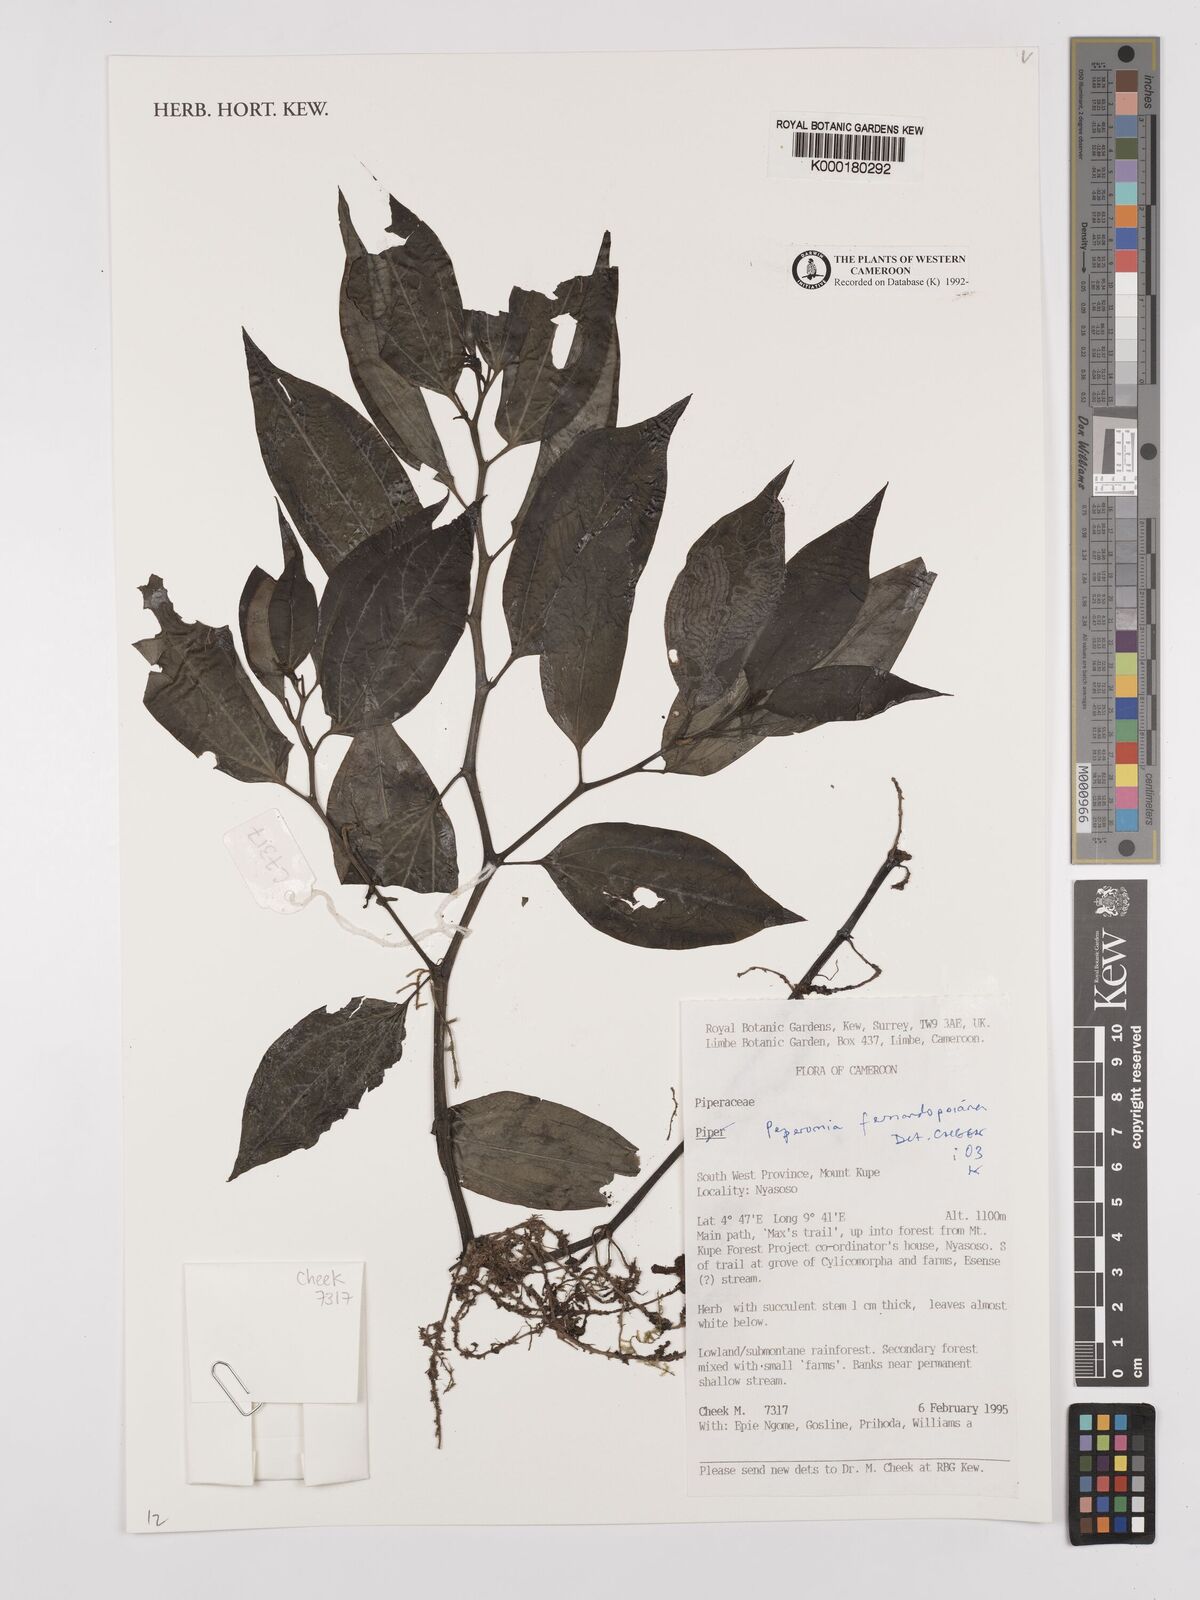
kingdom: Plantae
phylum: Tracheophyta
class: Magnoliopsida
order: Piperales
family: Piperaceae
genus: Peperomia
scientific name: Peperomia fernandopoiana
